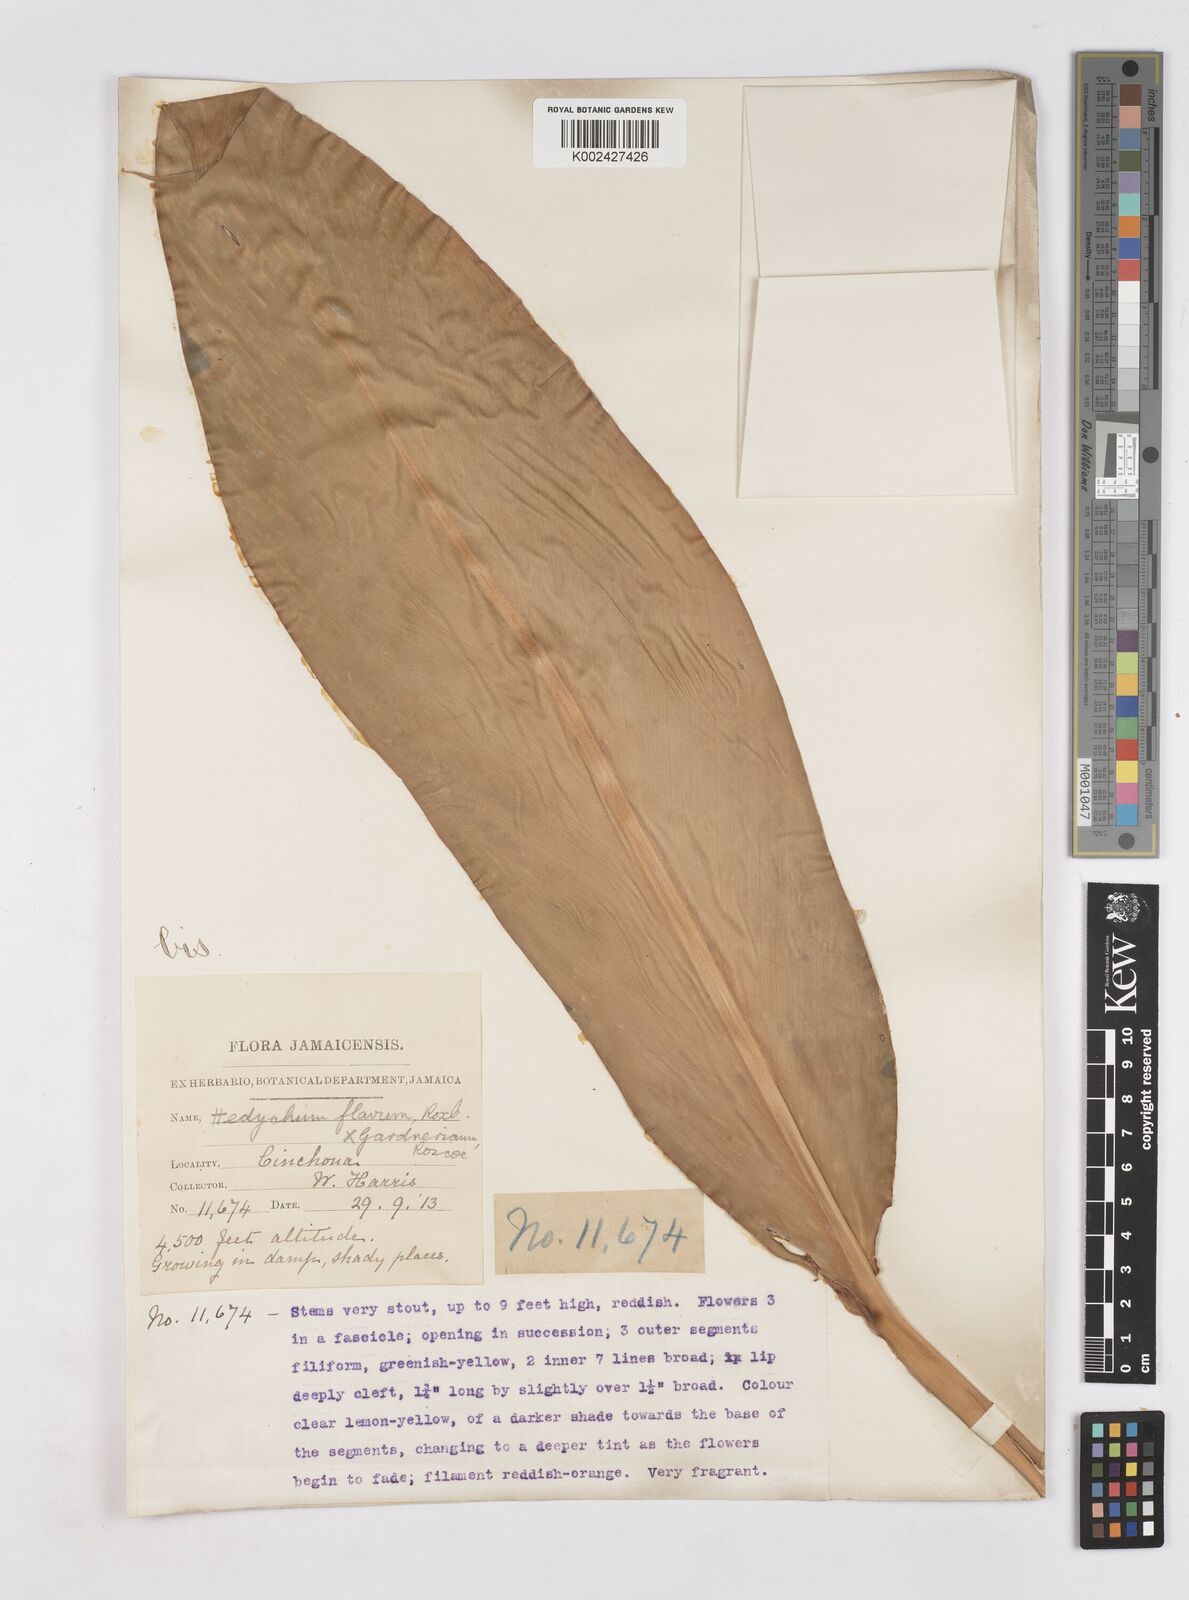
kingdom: Plantae
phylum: Tracheophyta
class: Liliopsida
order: Zingiberales
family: Zingiberaceae
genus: Hedychium
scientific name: Hedychium flavum
